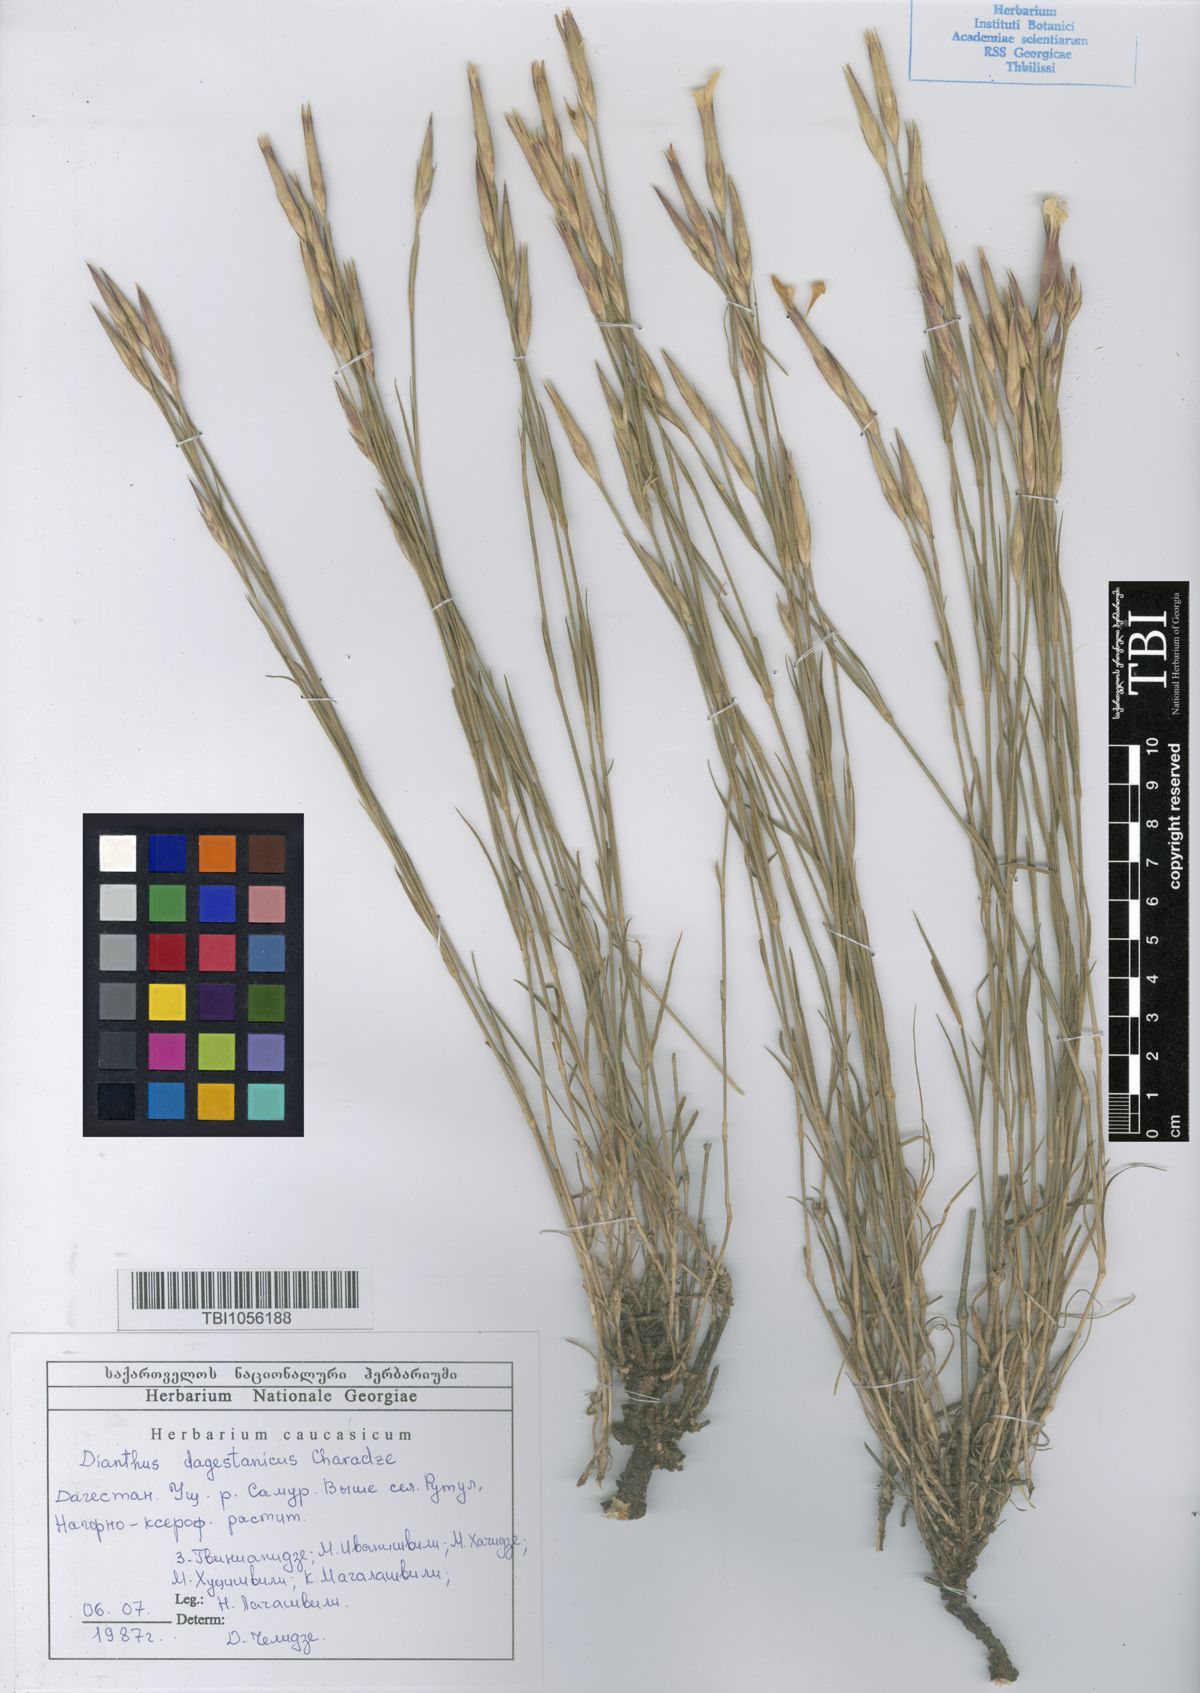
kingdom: Plantae
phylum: Tracheophyta
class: Magnoliopsida
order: Caryophyllales
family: Caryophyllaceae
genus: Dianthus
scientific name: Dianthus daghestanicus
